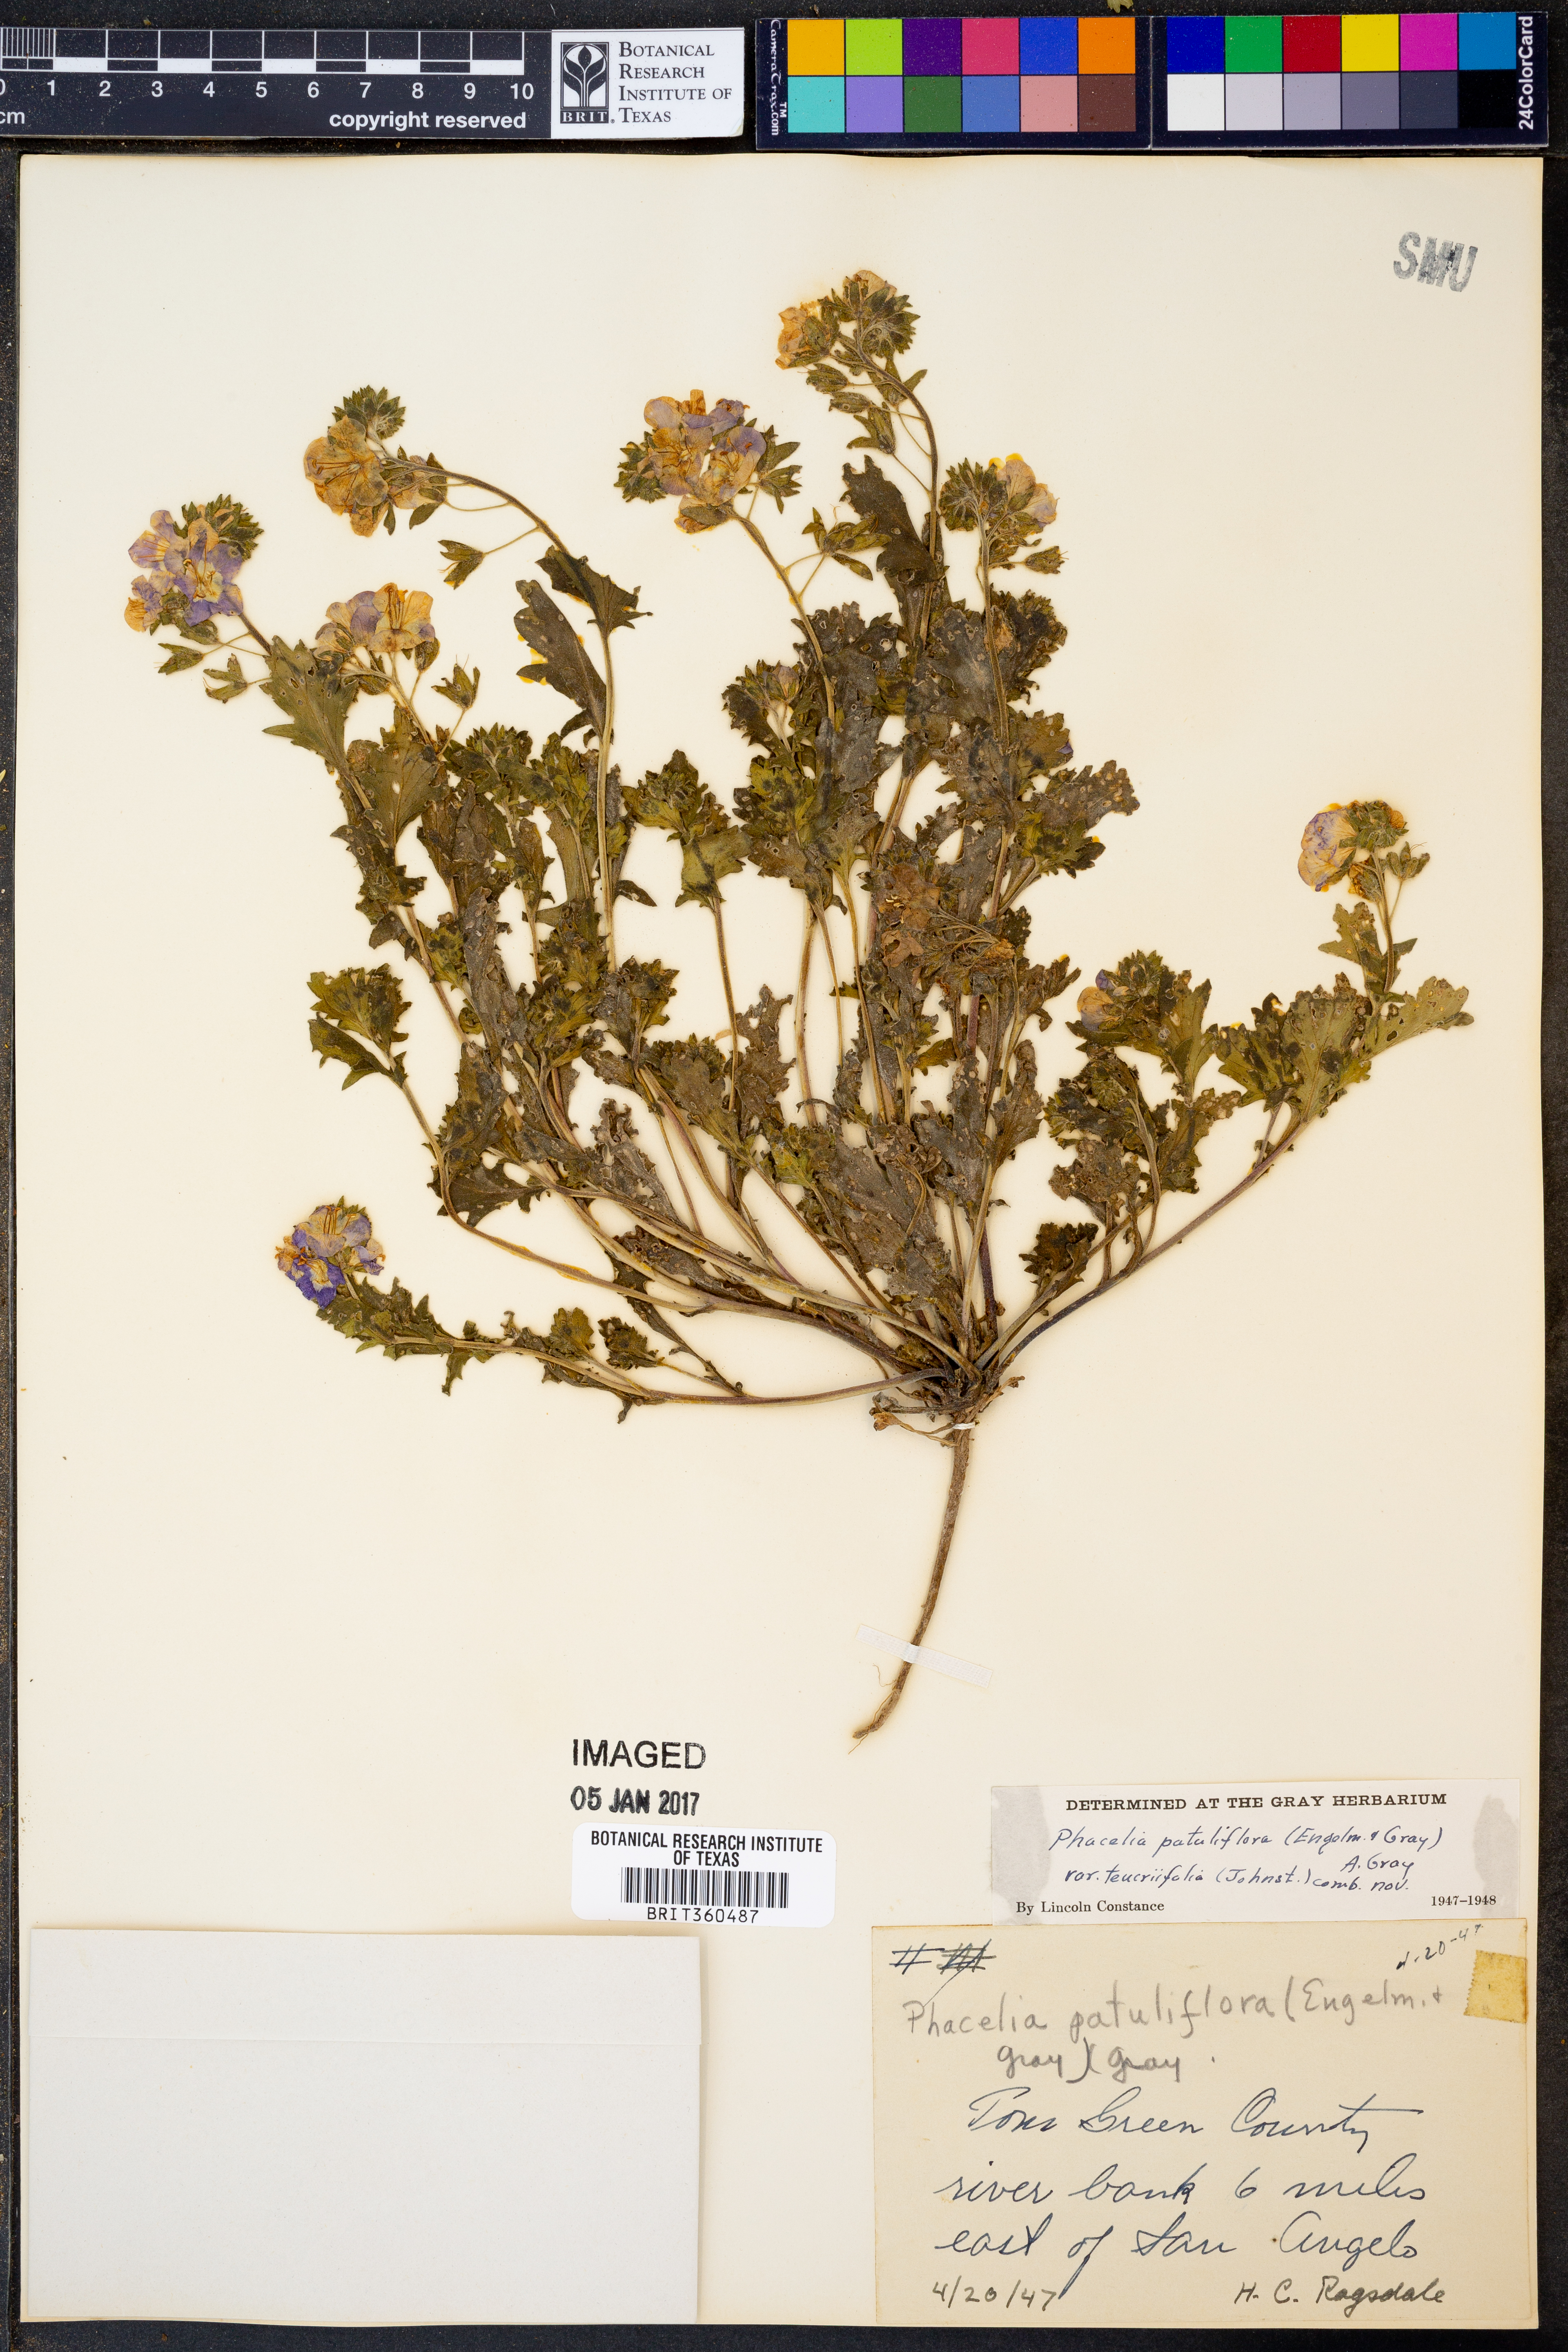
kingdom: Plantae
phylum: Tracheophyta
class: Magnoliopsida
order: Boraginales
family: Hydrophyllaceae
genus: Phacelia
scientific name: Phacelia patuliflora
